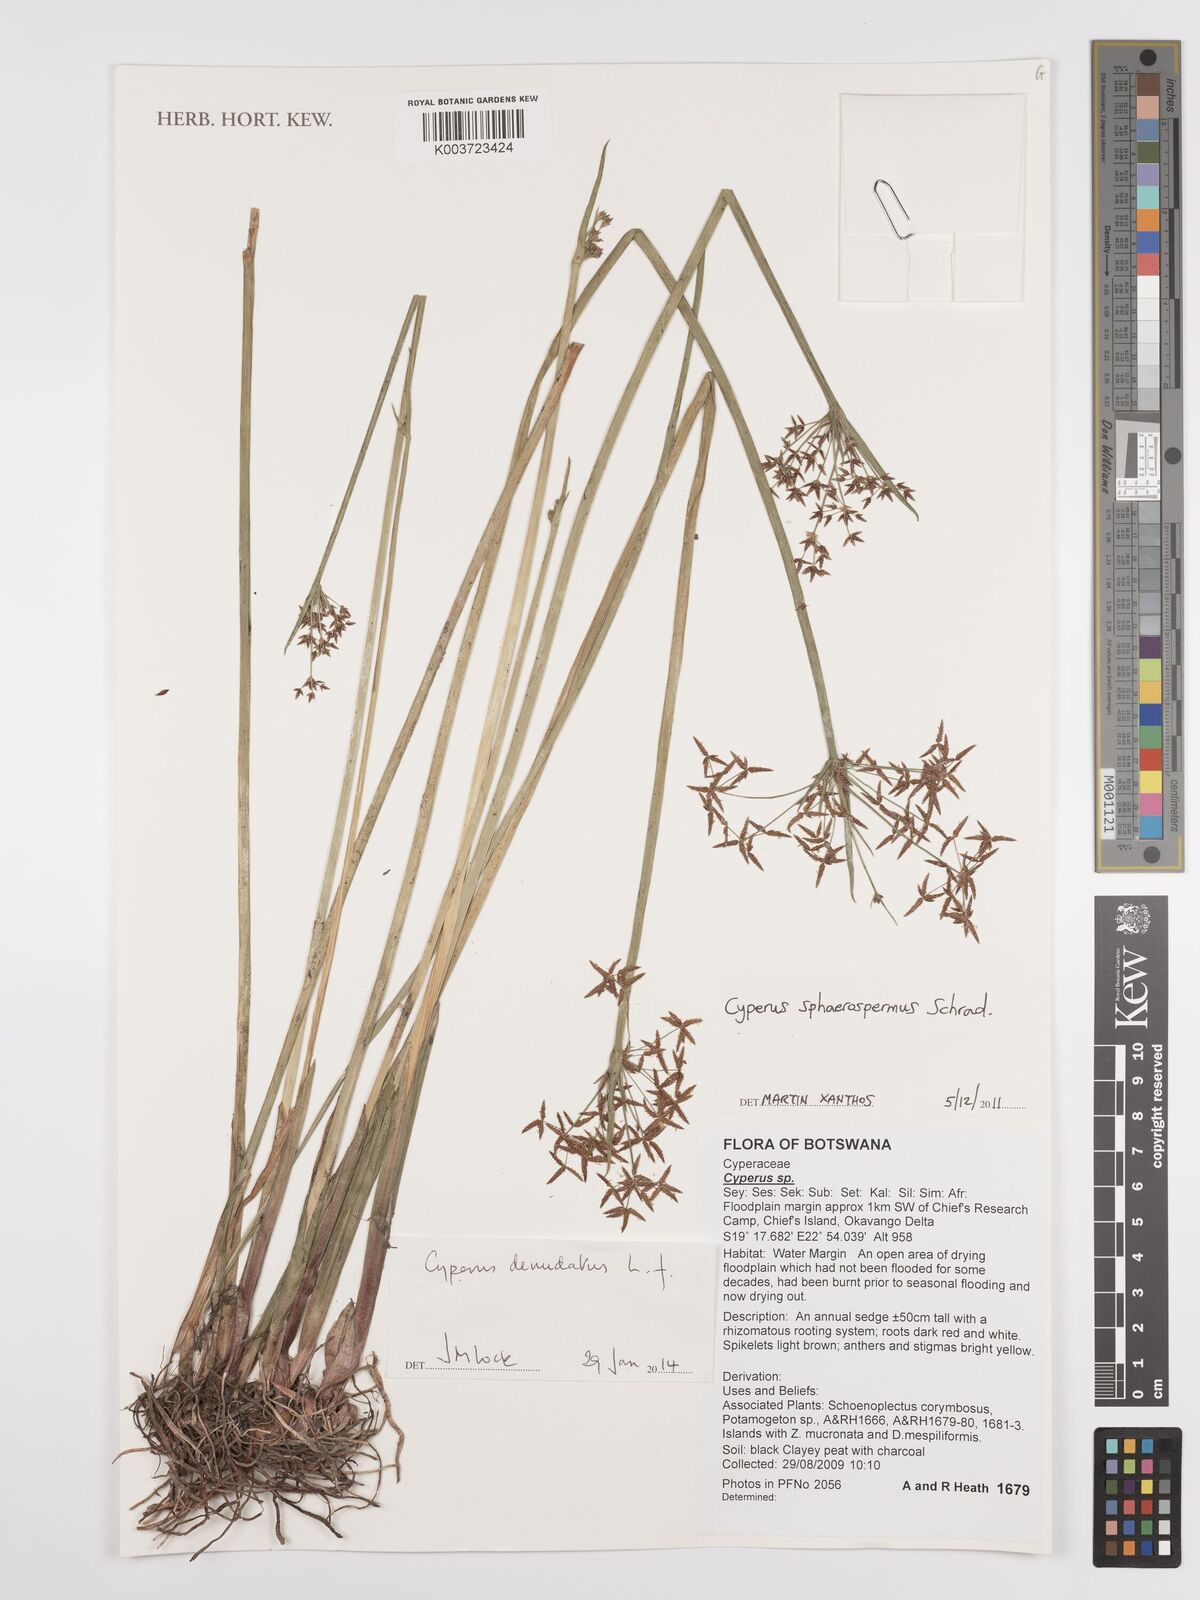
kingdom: Plantae
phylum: Tracheophyta
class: Liliopsida
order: Poales
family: Cyperaceae
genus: Cyperus
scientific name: Cyperus denudatus
